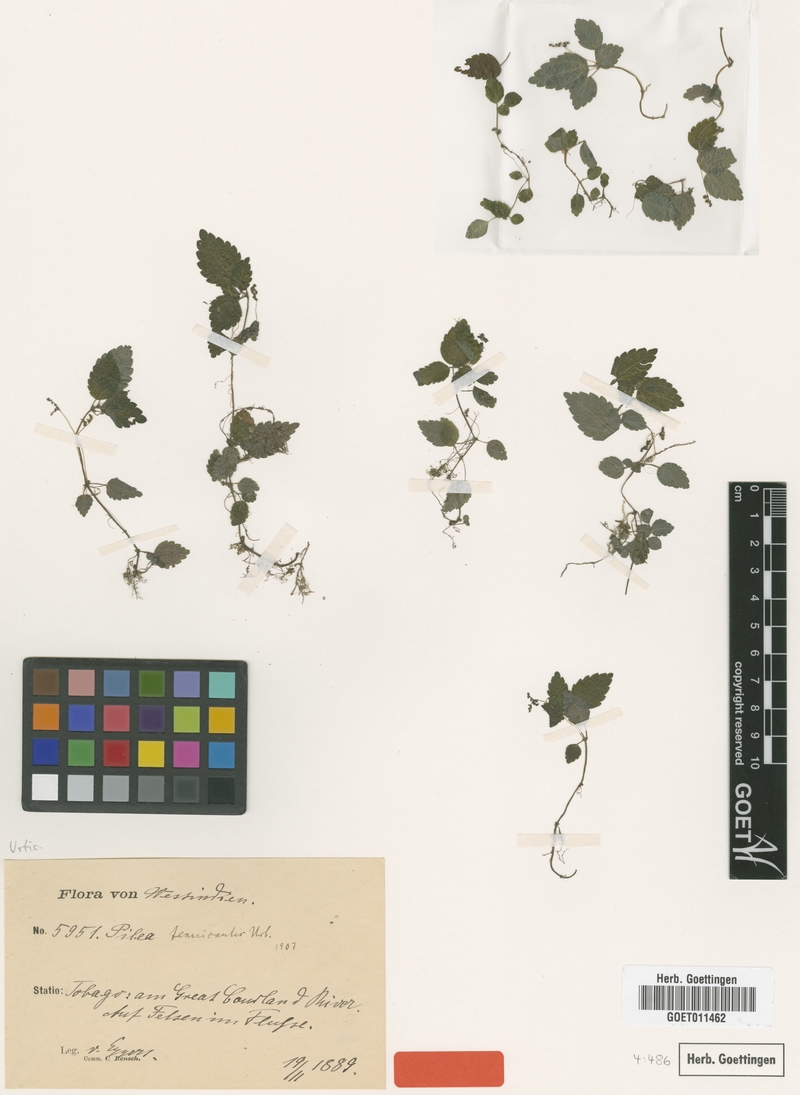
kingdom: Plantae
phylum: Tracheophyta
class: Magnoliopsida
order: Rosales
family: Urticaceae
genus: Pilea
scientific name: Pilea inaequalis
